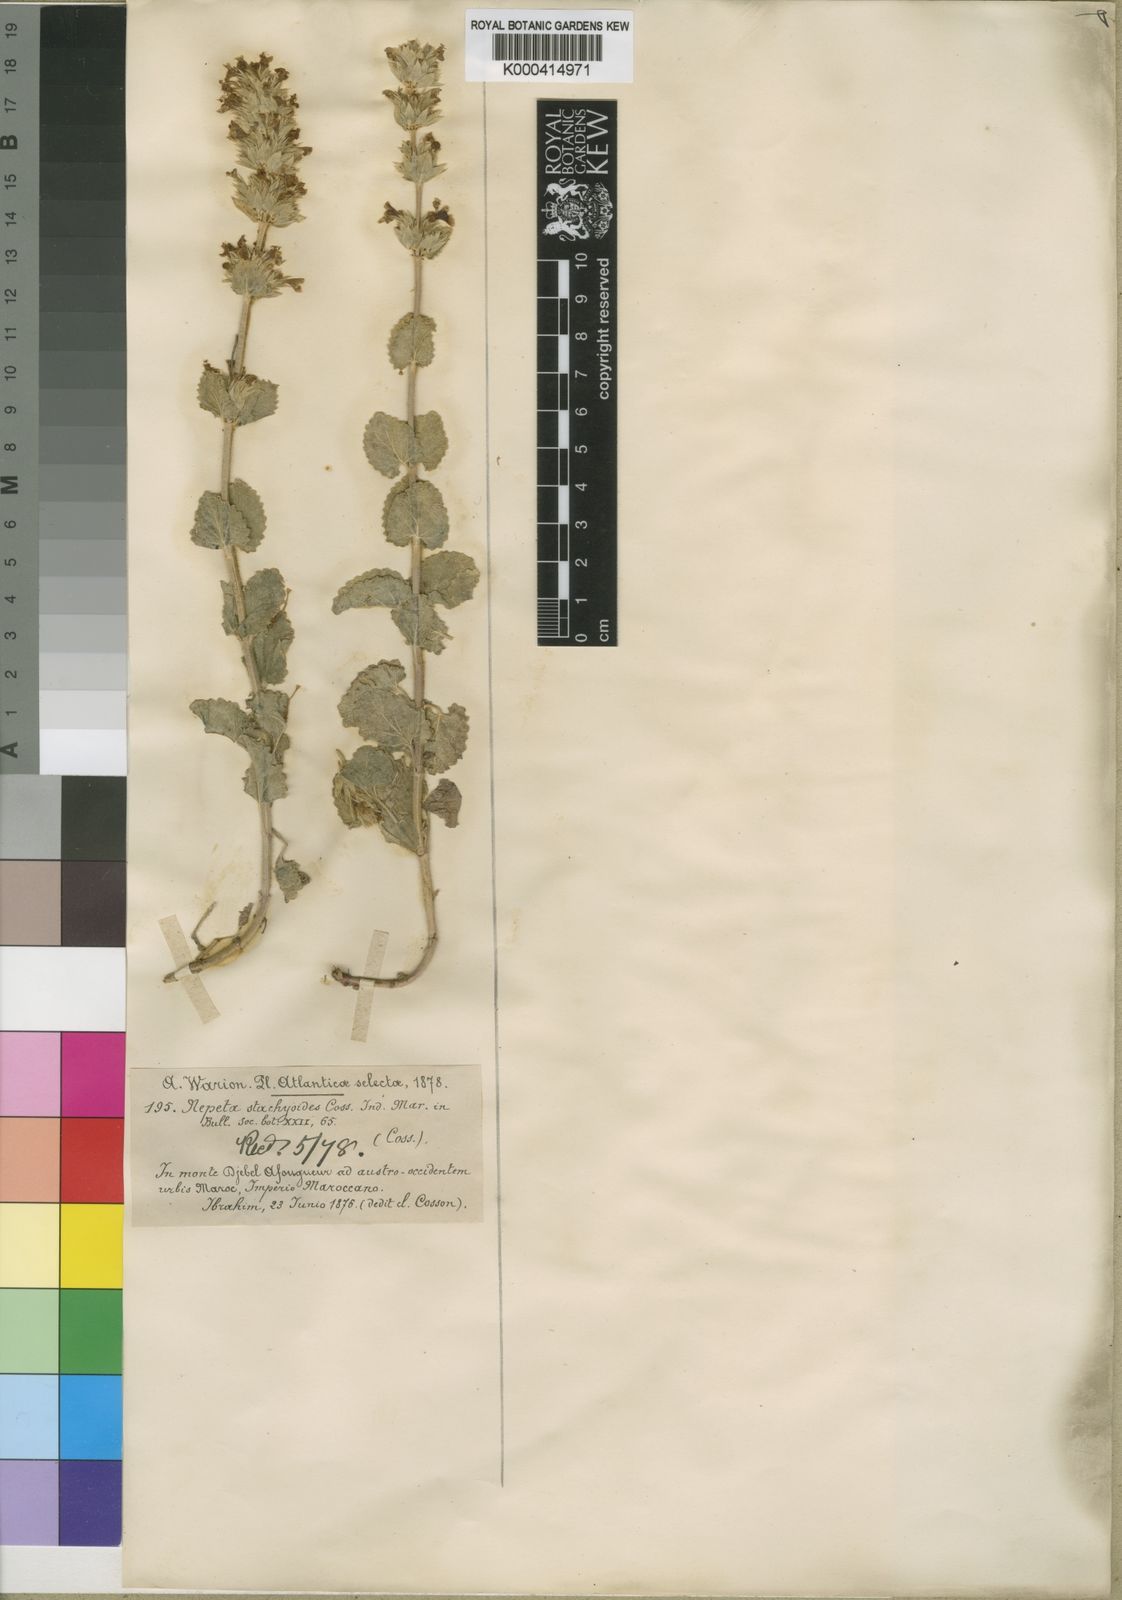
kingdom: Plantae
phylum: Tracheophyta
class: Magnoliopsida
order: Lamiales
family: Lamiaceae
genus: Nepeta
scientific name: Nepeta
